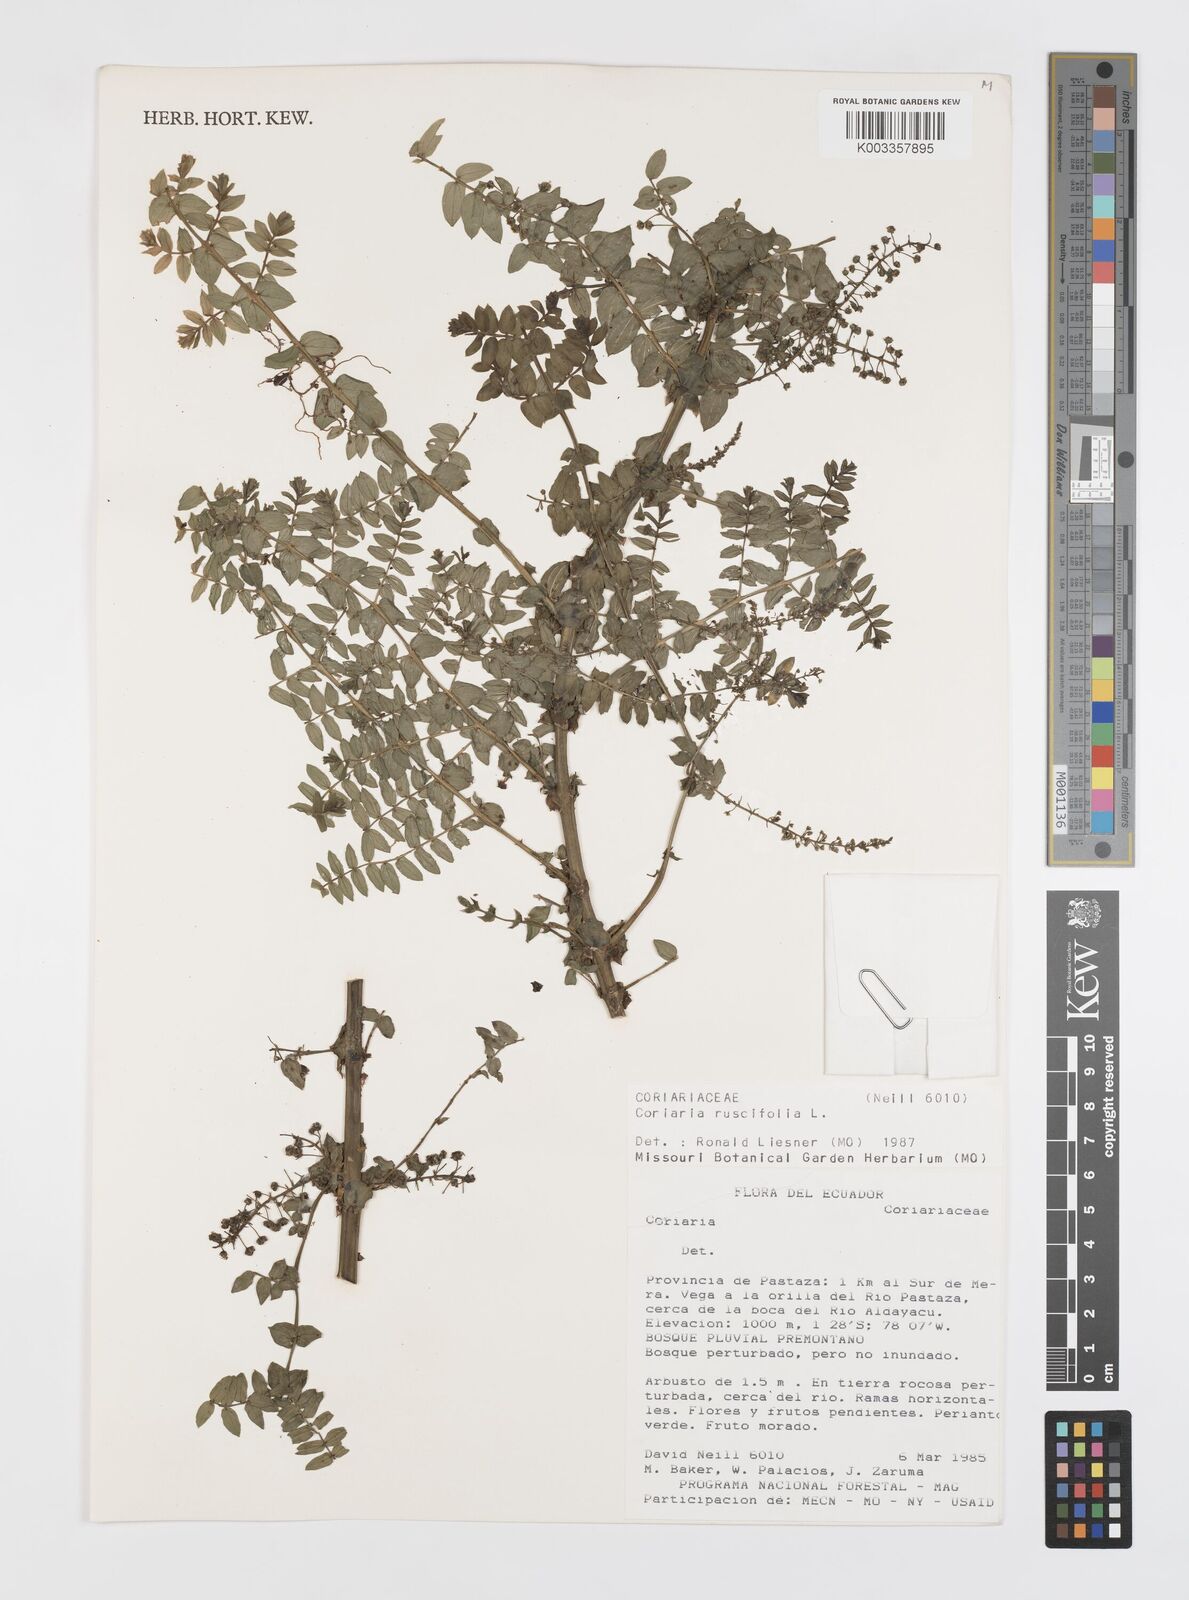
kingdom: Plantae
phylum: Tracheophyta
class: Magnoliopsida
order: Cucurbitales
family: Coriariaceae
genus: Coriaria
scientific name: Coriaria microphylla
